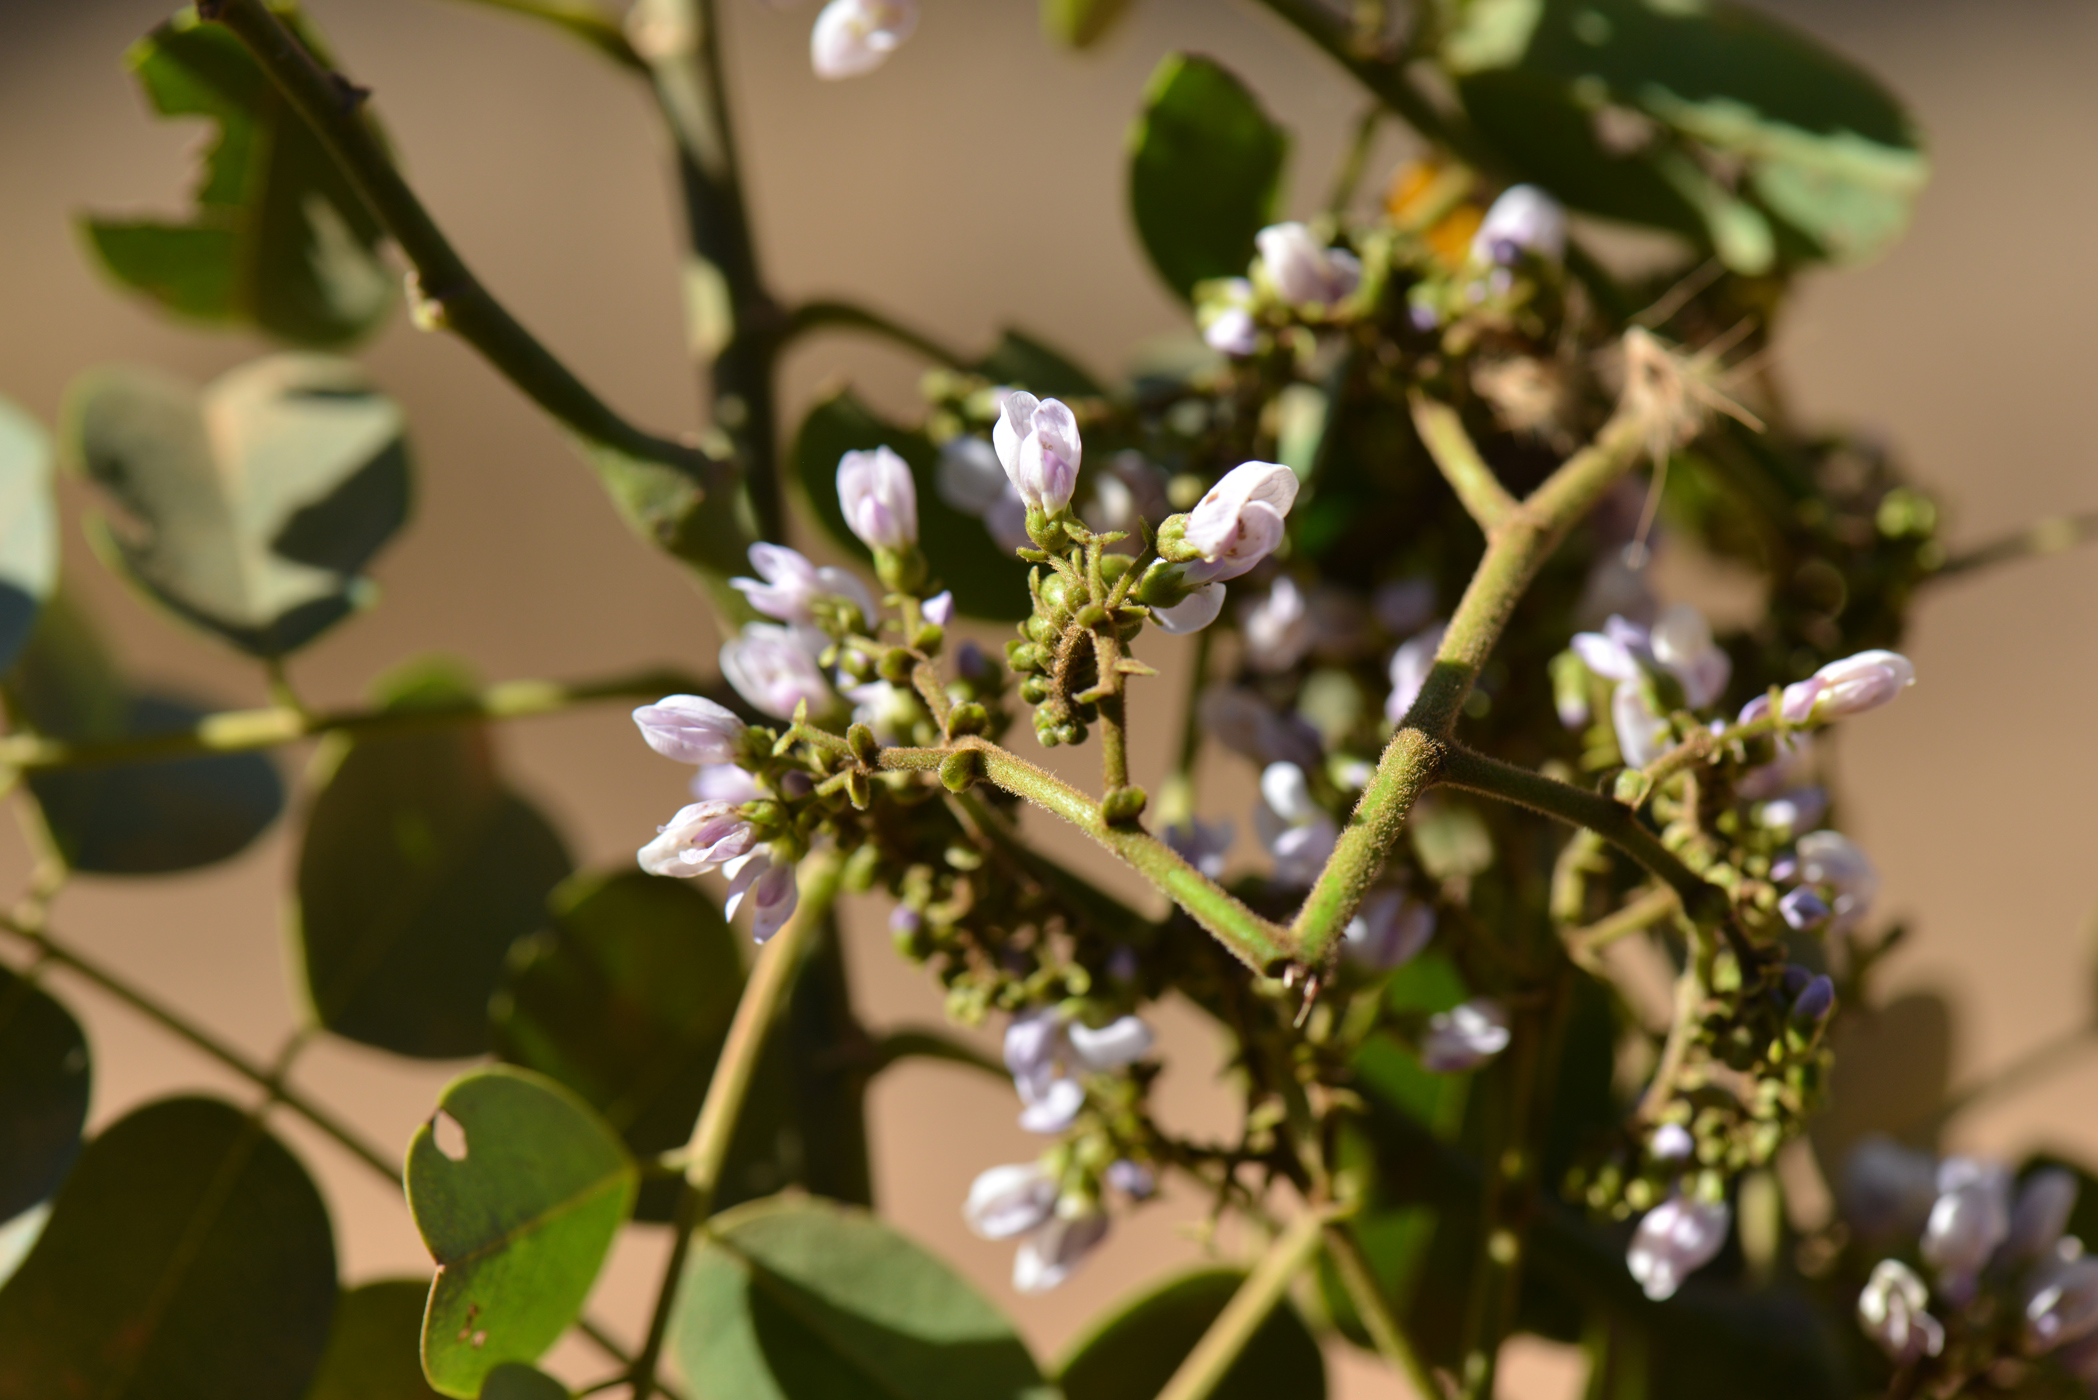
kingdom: Plantae
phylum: Tracheophyta
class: Magnoliopsida
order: Fabales
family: Fabaceae
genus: Dalbergia
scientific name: Dalbergia
